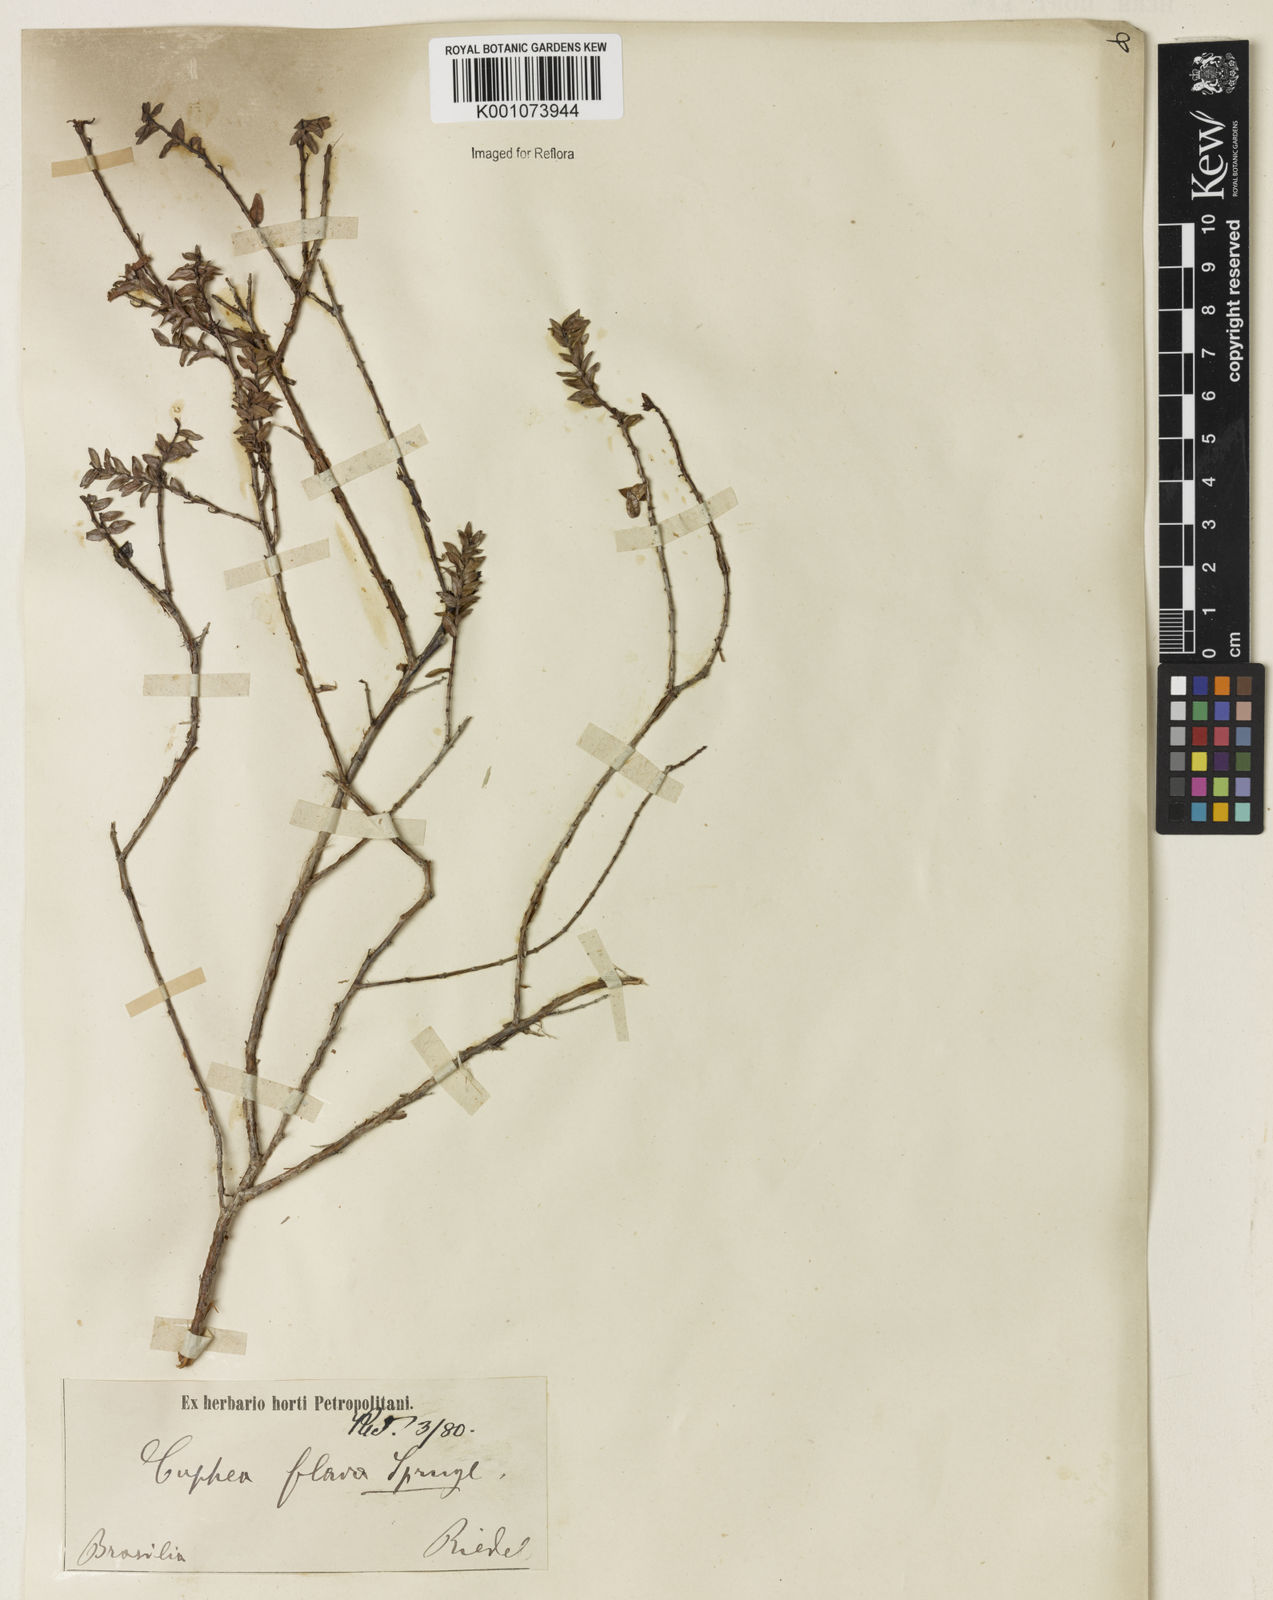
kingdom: Plantae
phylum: Tracheophyta
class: Magnoliopsida
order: Myrtales
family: Lythraceae
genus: Cuphea
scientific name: Cuphea flava
